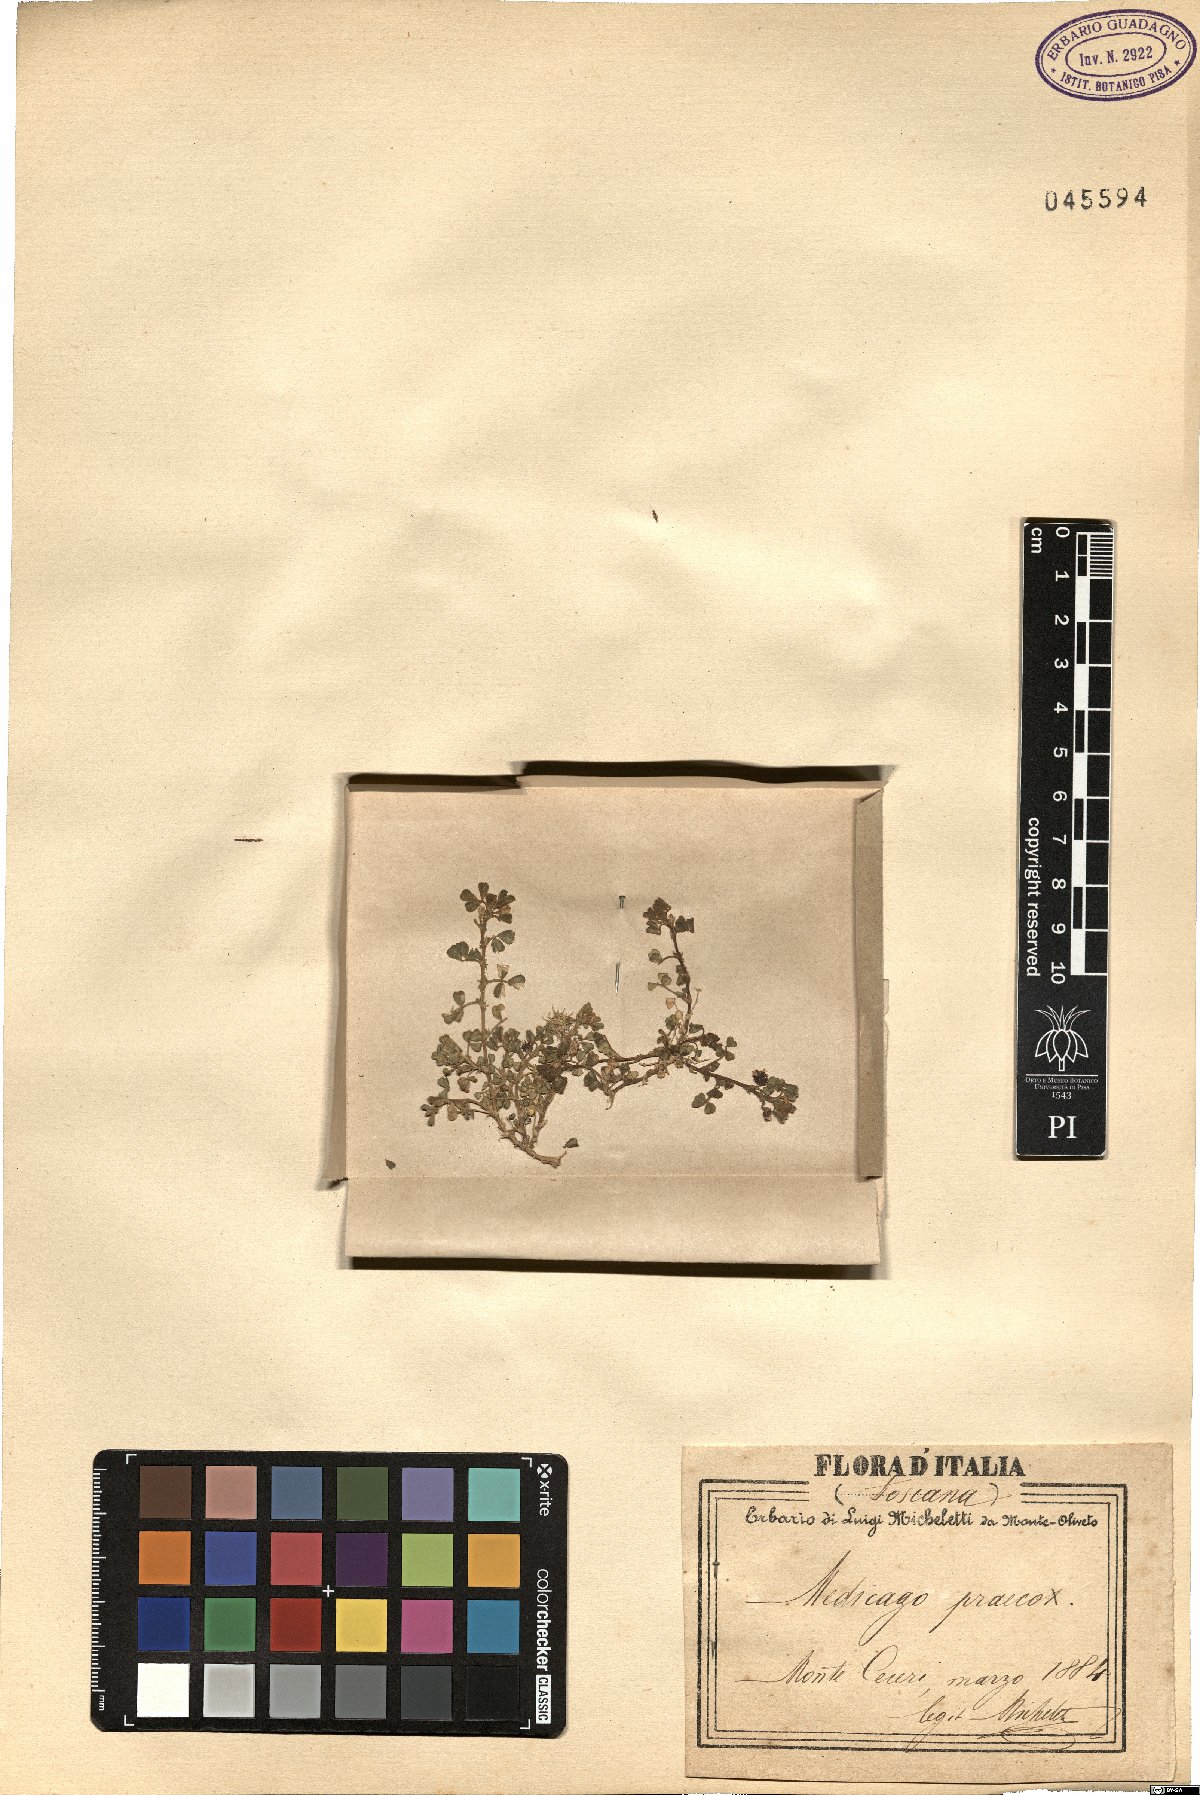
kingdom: Plantae
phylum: Tracheophyta
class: Magnoliopsida
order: Fabales
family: Fabaceae
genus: Medicago
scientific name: Medicago praecox
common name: Early medick
